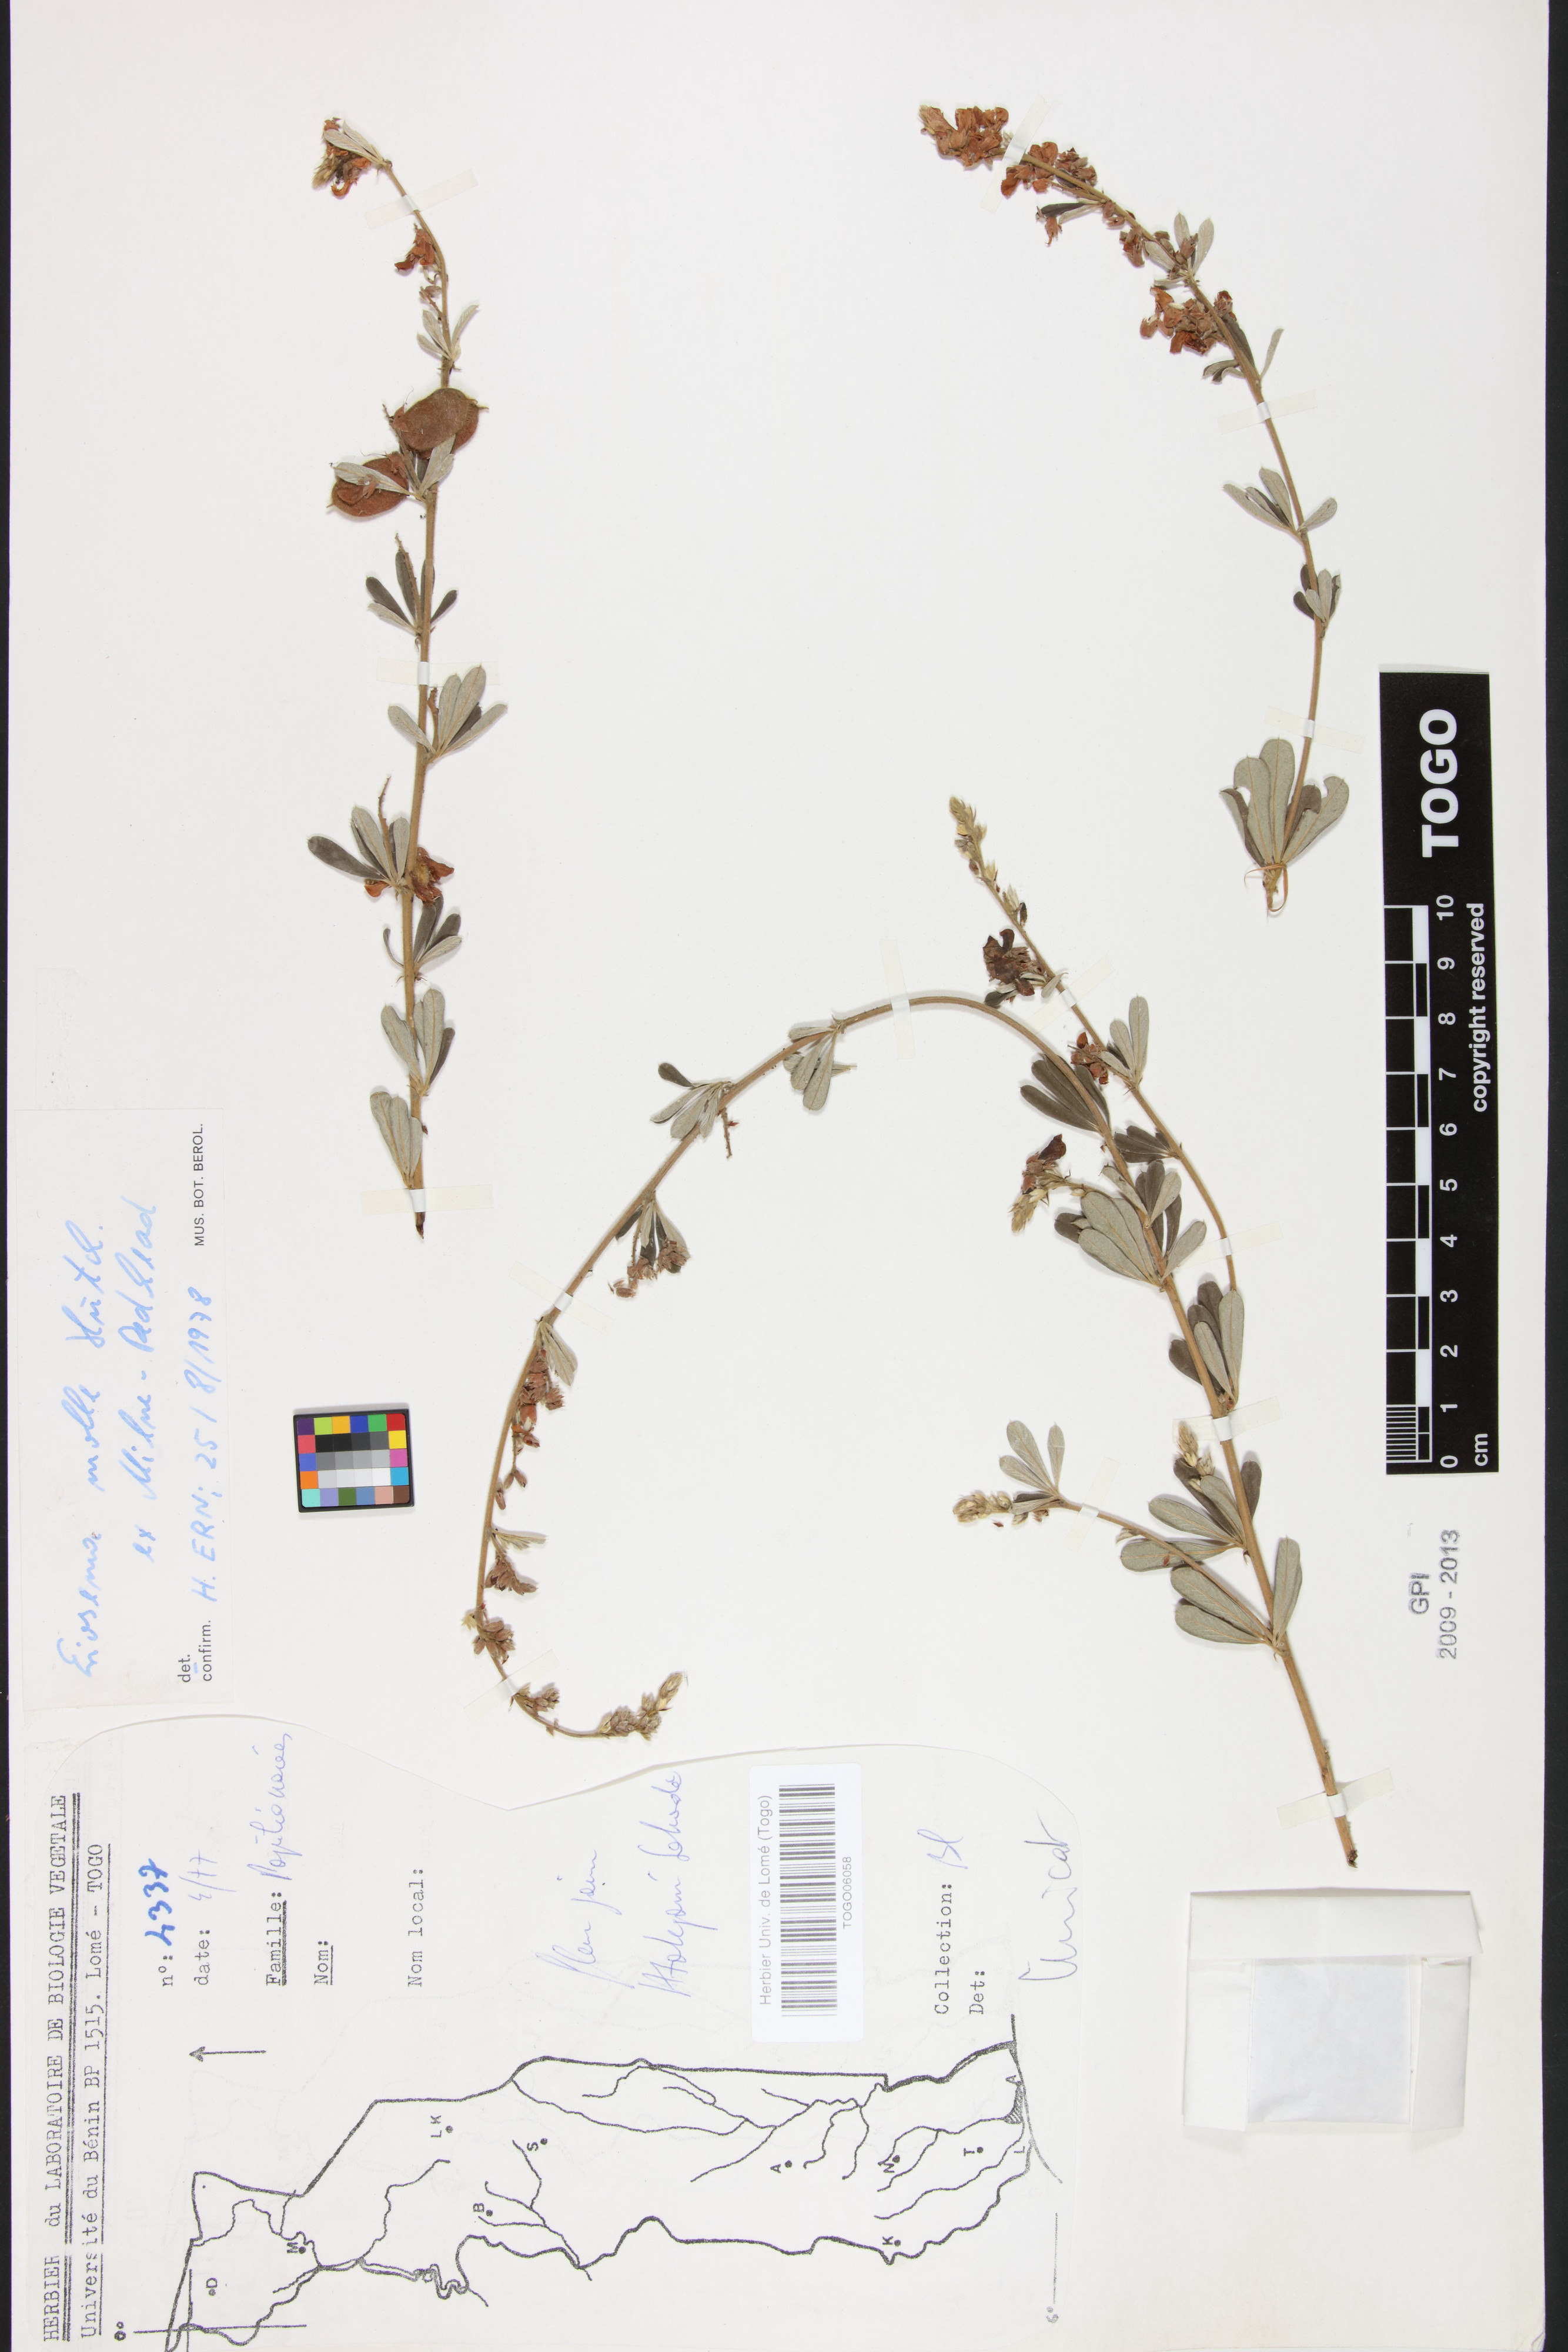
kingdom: Plantae
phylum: Tracheophyta
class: Magnoliopsida
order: Fabales
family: Fabaceae
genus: Eriosema
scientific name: Eriosema molle
